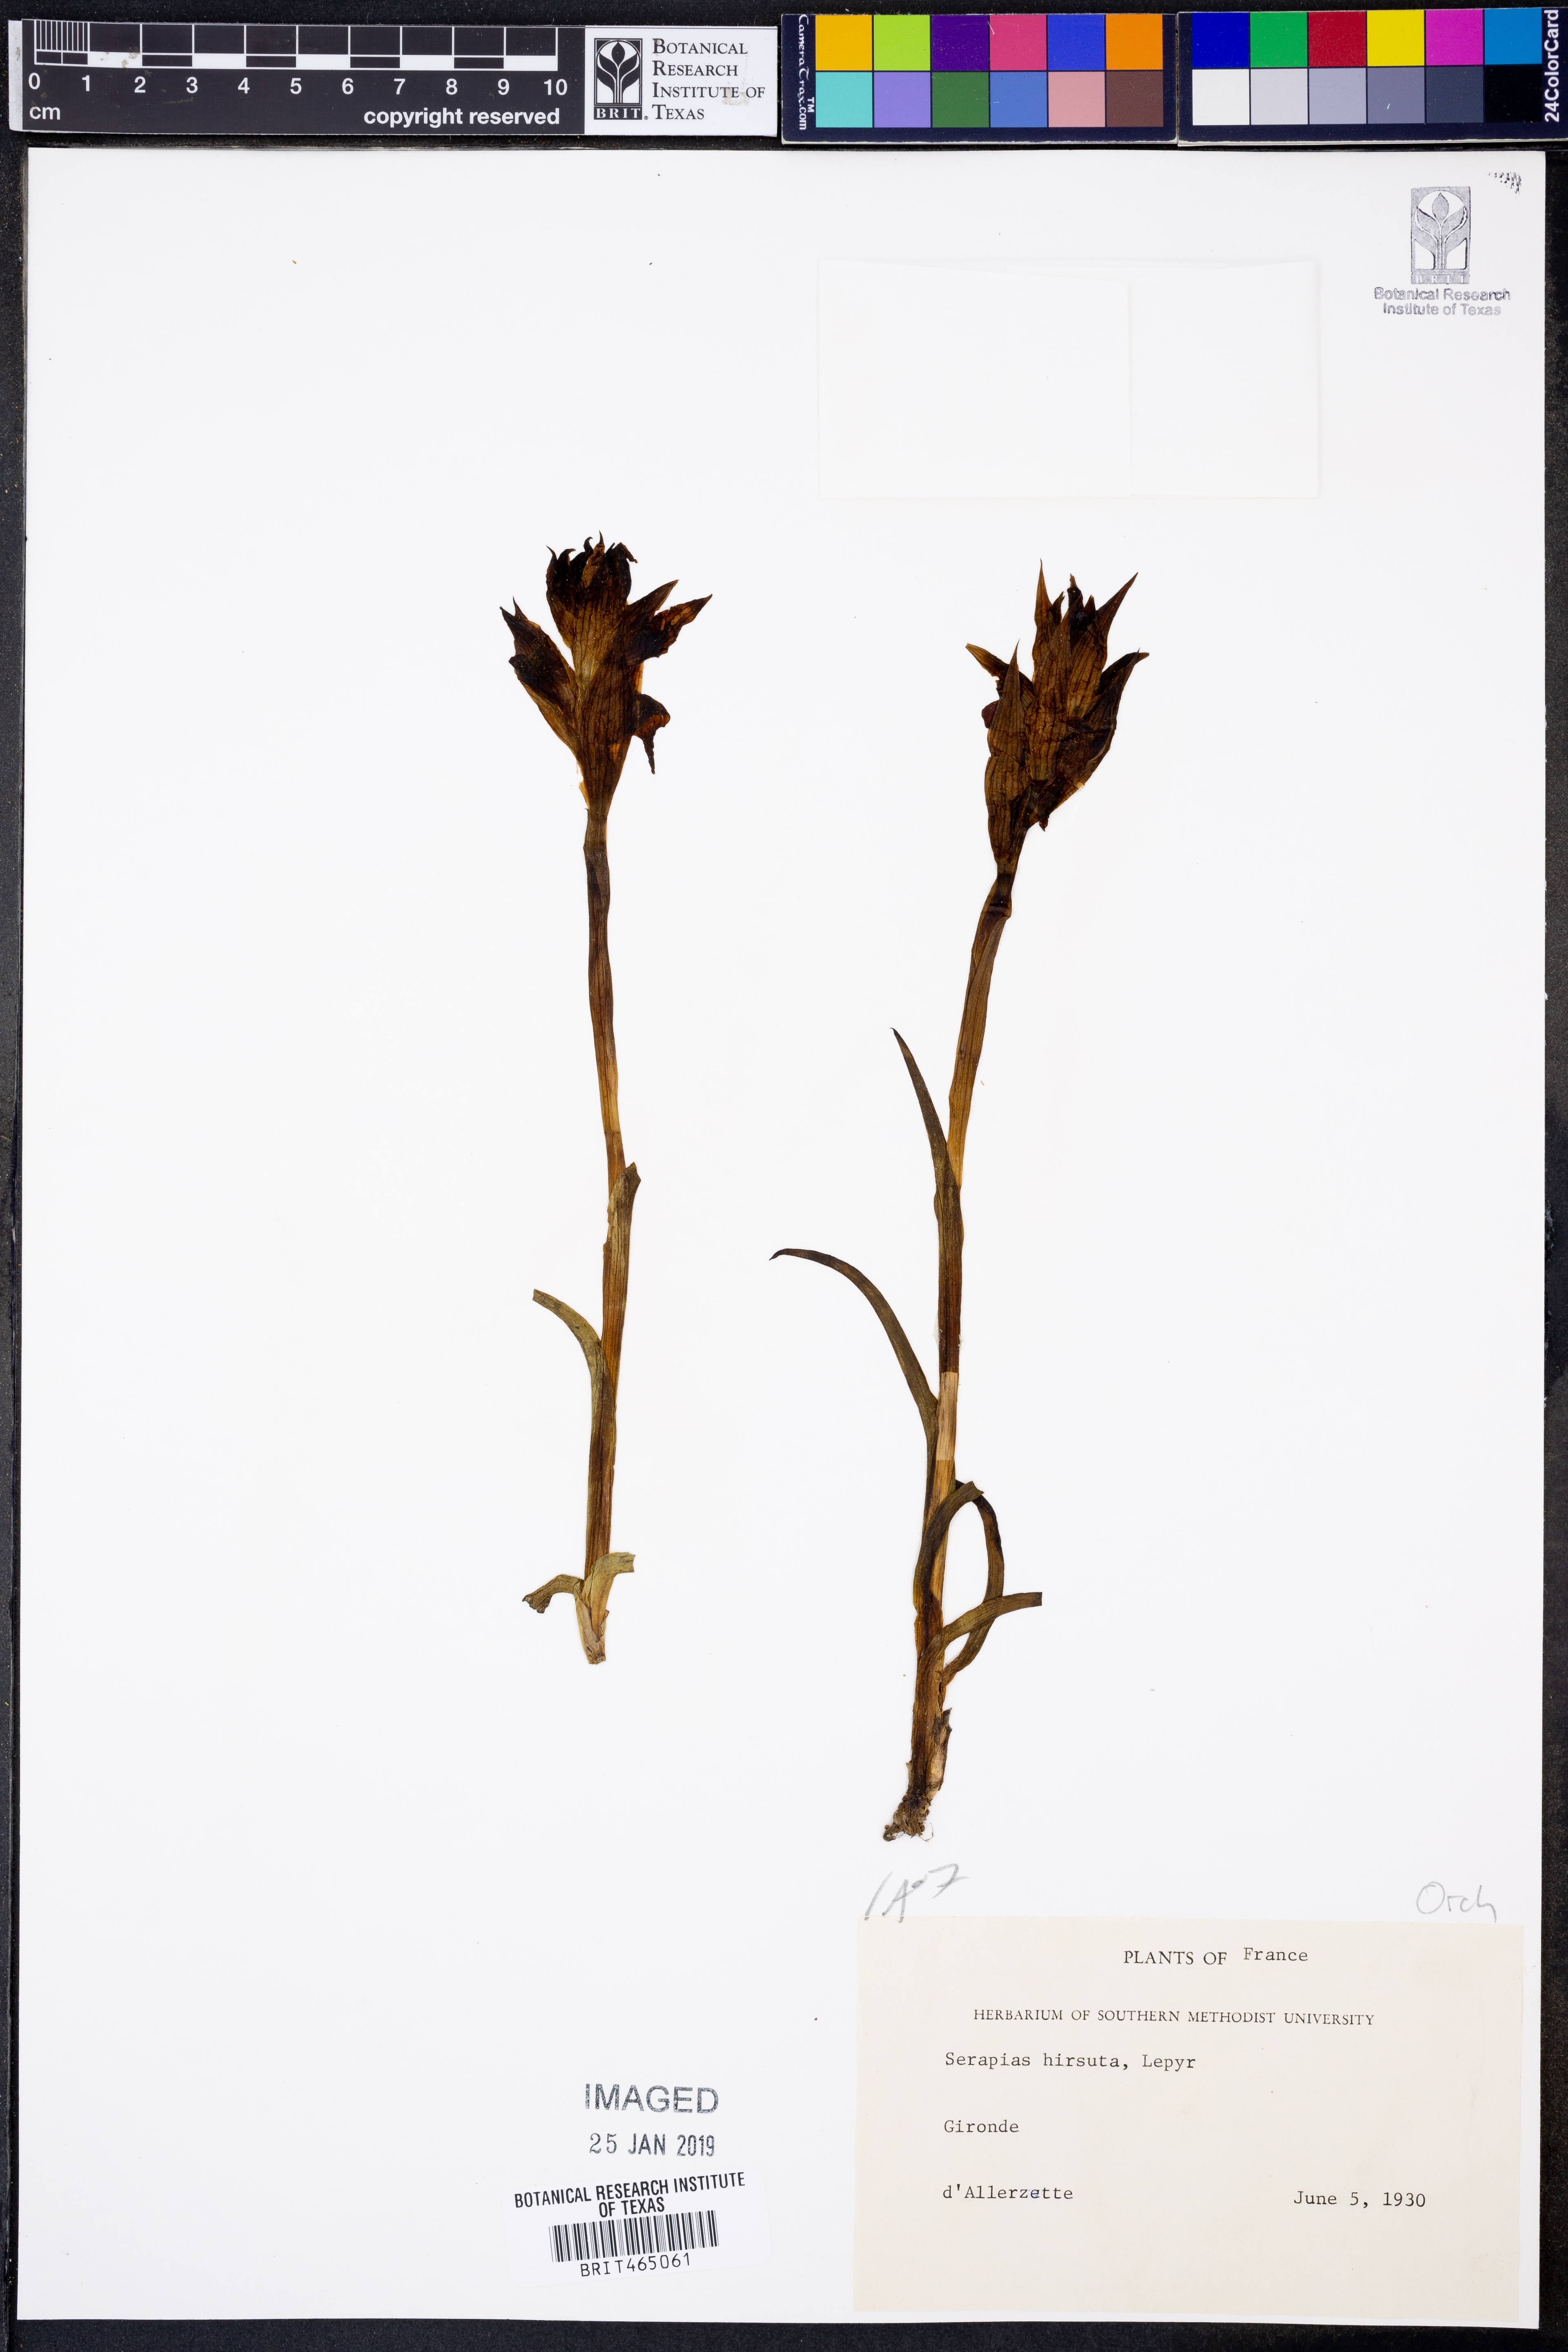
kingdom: Plantae
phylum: Tracheophyta
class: Liliopsida
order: Asparagales
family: Orchidaceae
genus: Serapias
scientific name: Serapias vomeracea
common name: Long-lipped tongue-orchid
